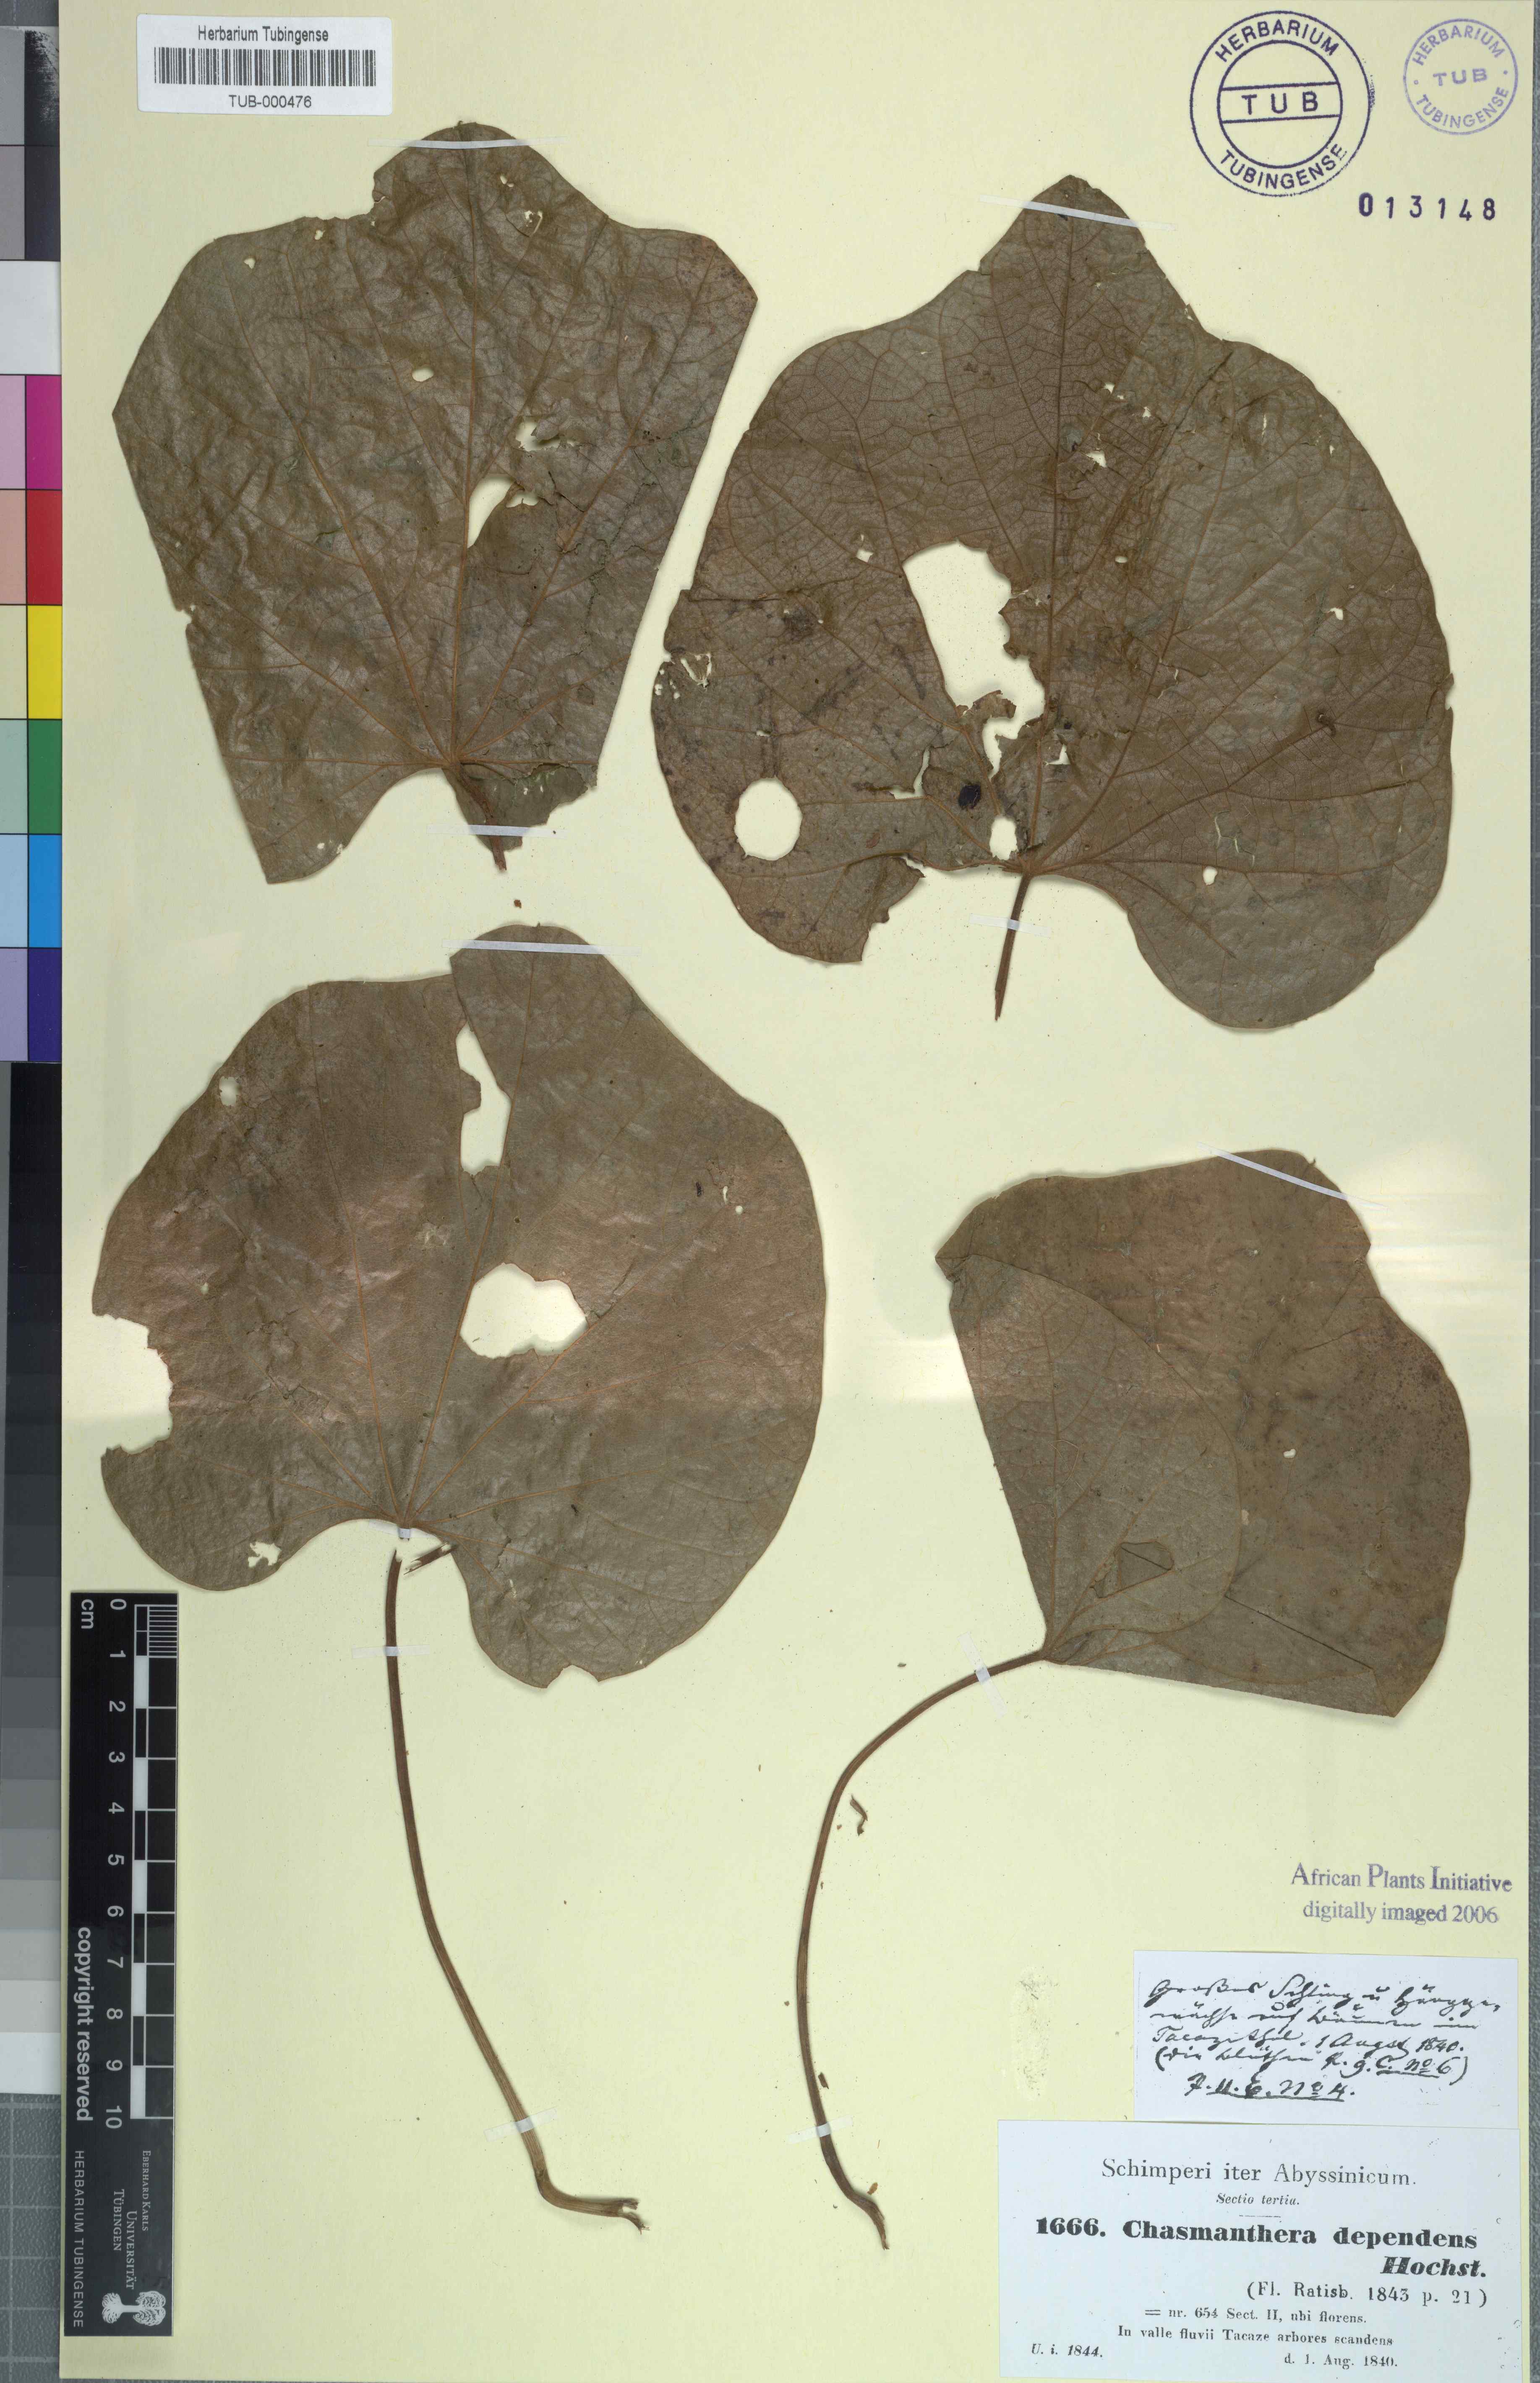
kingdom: Plantae
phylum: Tracheophyta
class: Magnoliopsida
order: Ranunculales
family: Menispermaceae
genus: Chasmanthera
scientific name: Chasmanthera dependens
